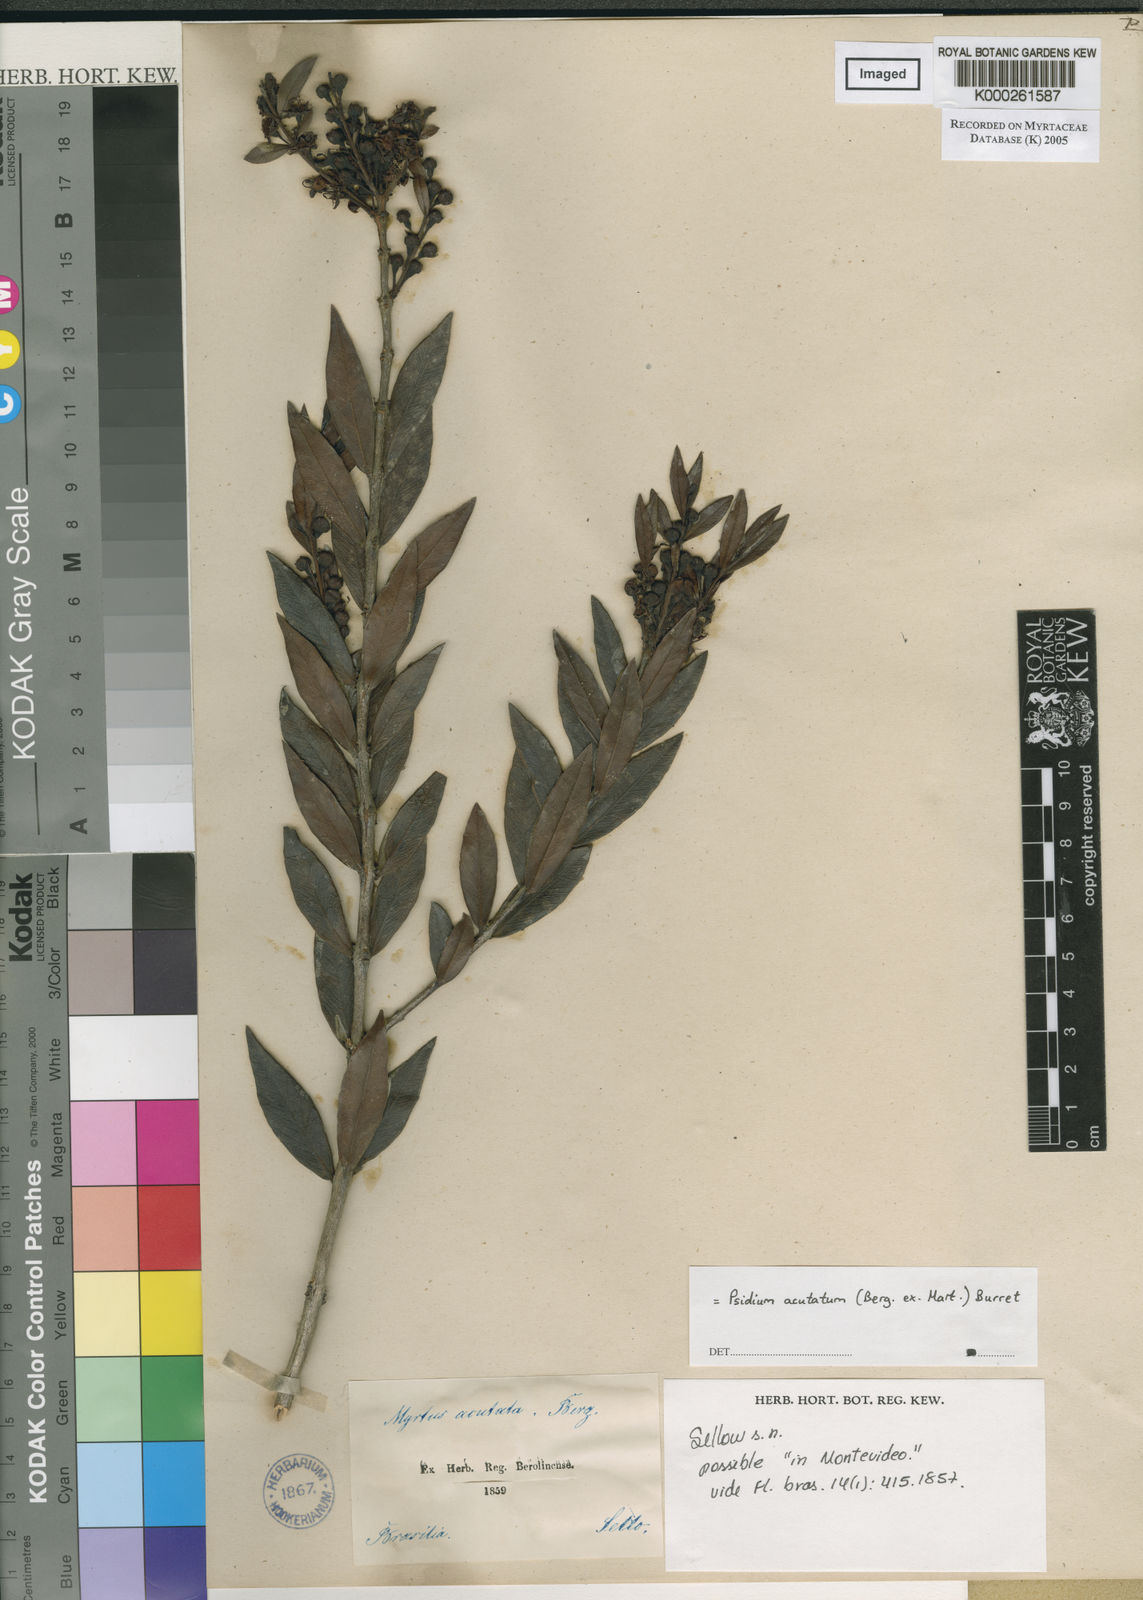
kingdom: Plantae
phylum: Tracheophyta
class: Magnoliopsida
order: Myrtales
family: Myrtaceae
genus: Psidium
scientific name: Psidium salutare
